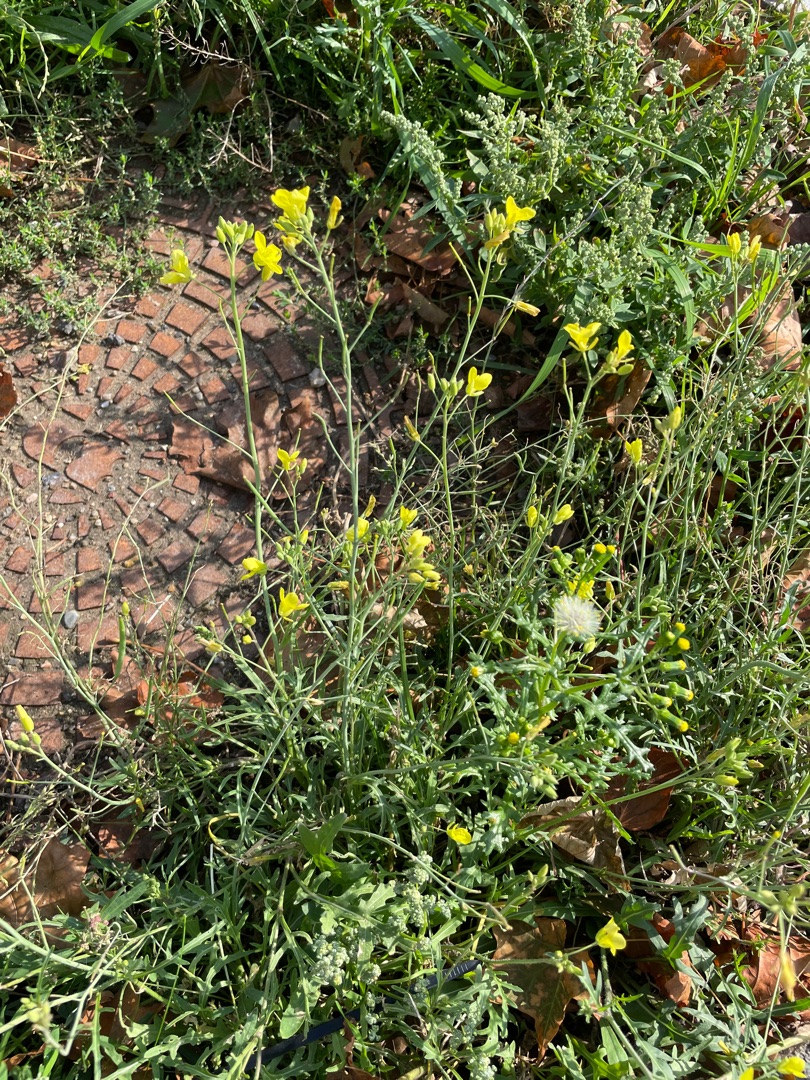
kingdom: Plantae
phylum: Tracheophyta
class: Magnoliopsida
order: Brassicales
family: Brassicaceae
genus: Diplotaxis
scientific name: Diplotaxis tenuifolia
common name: Sandsennep
